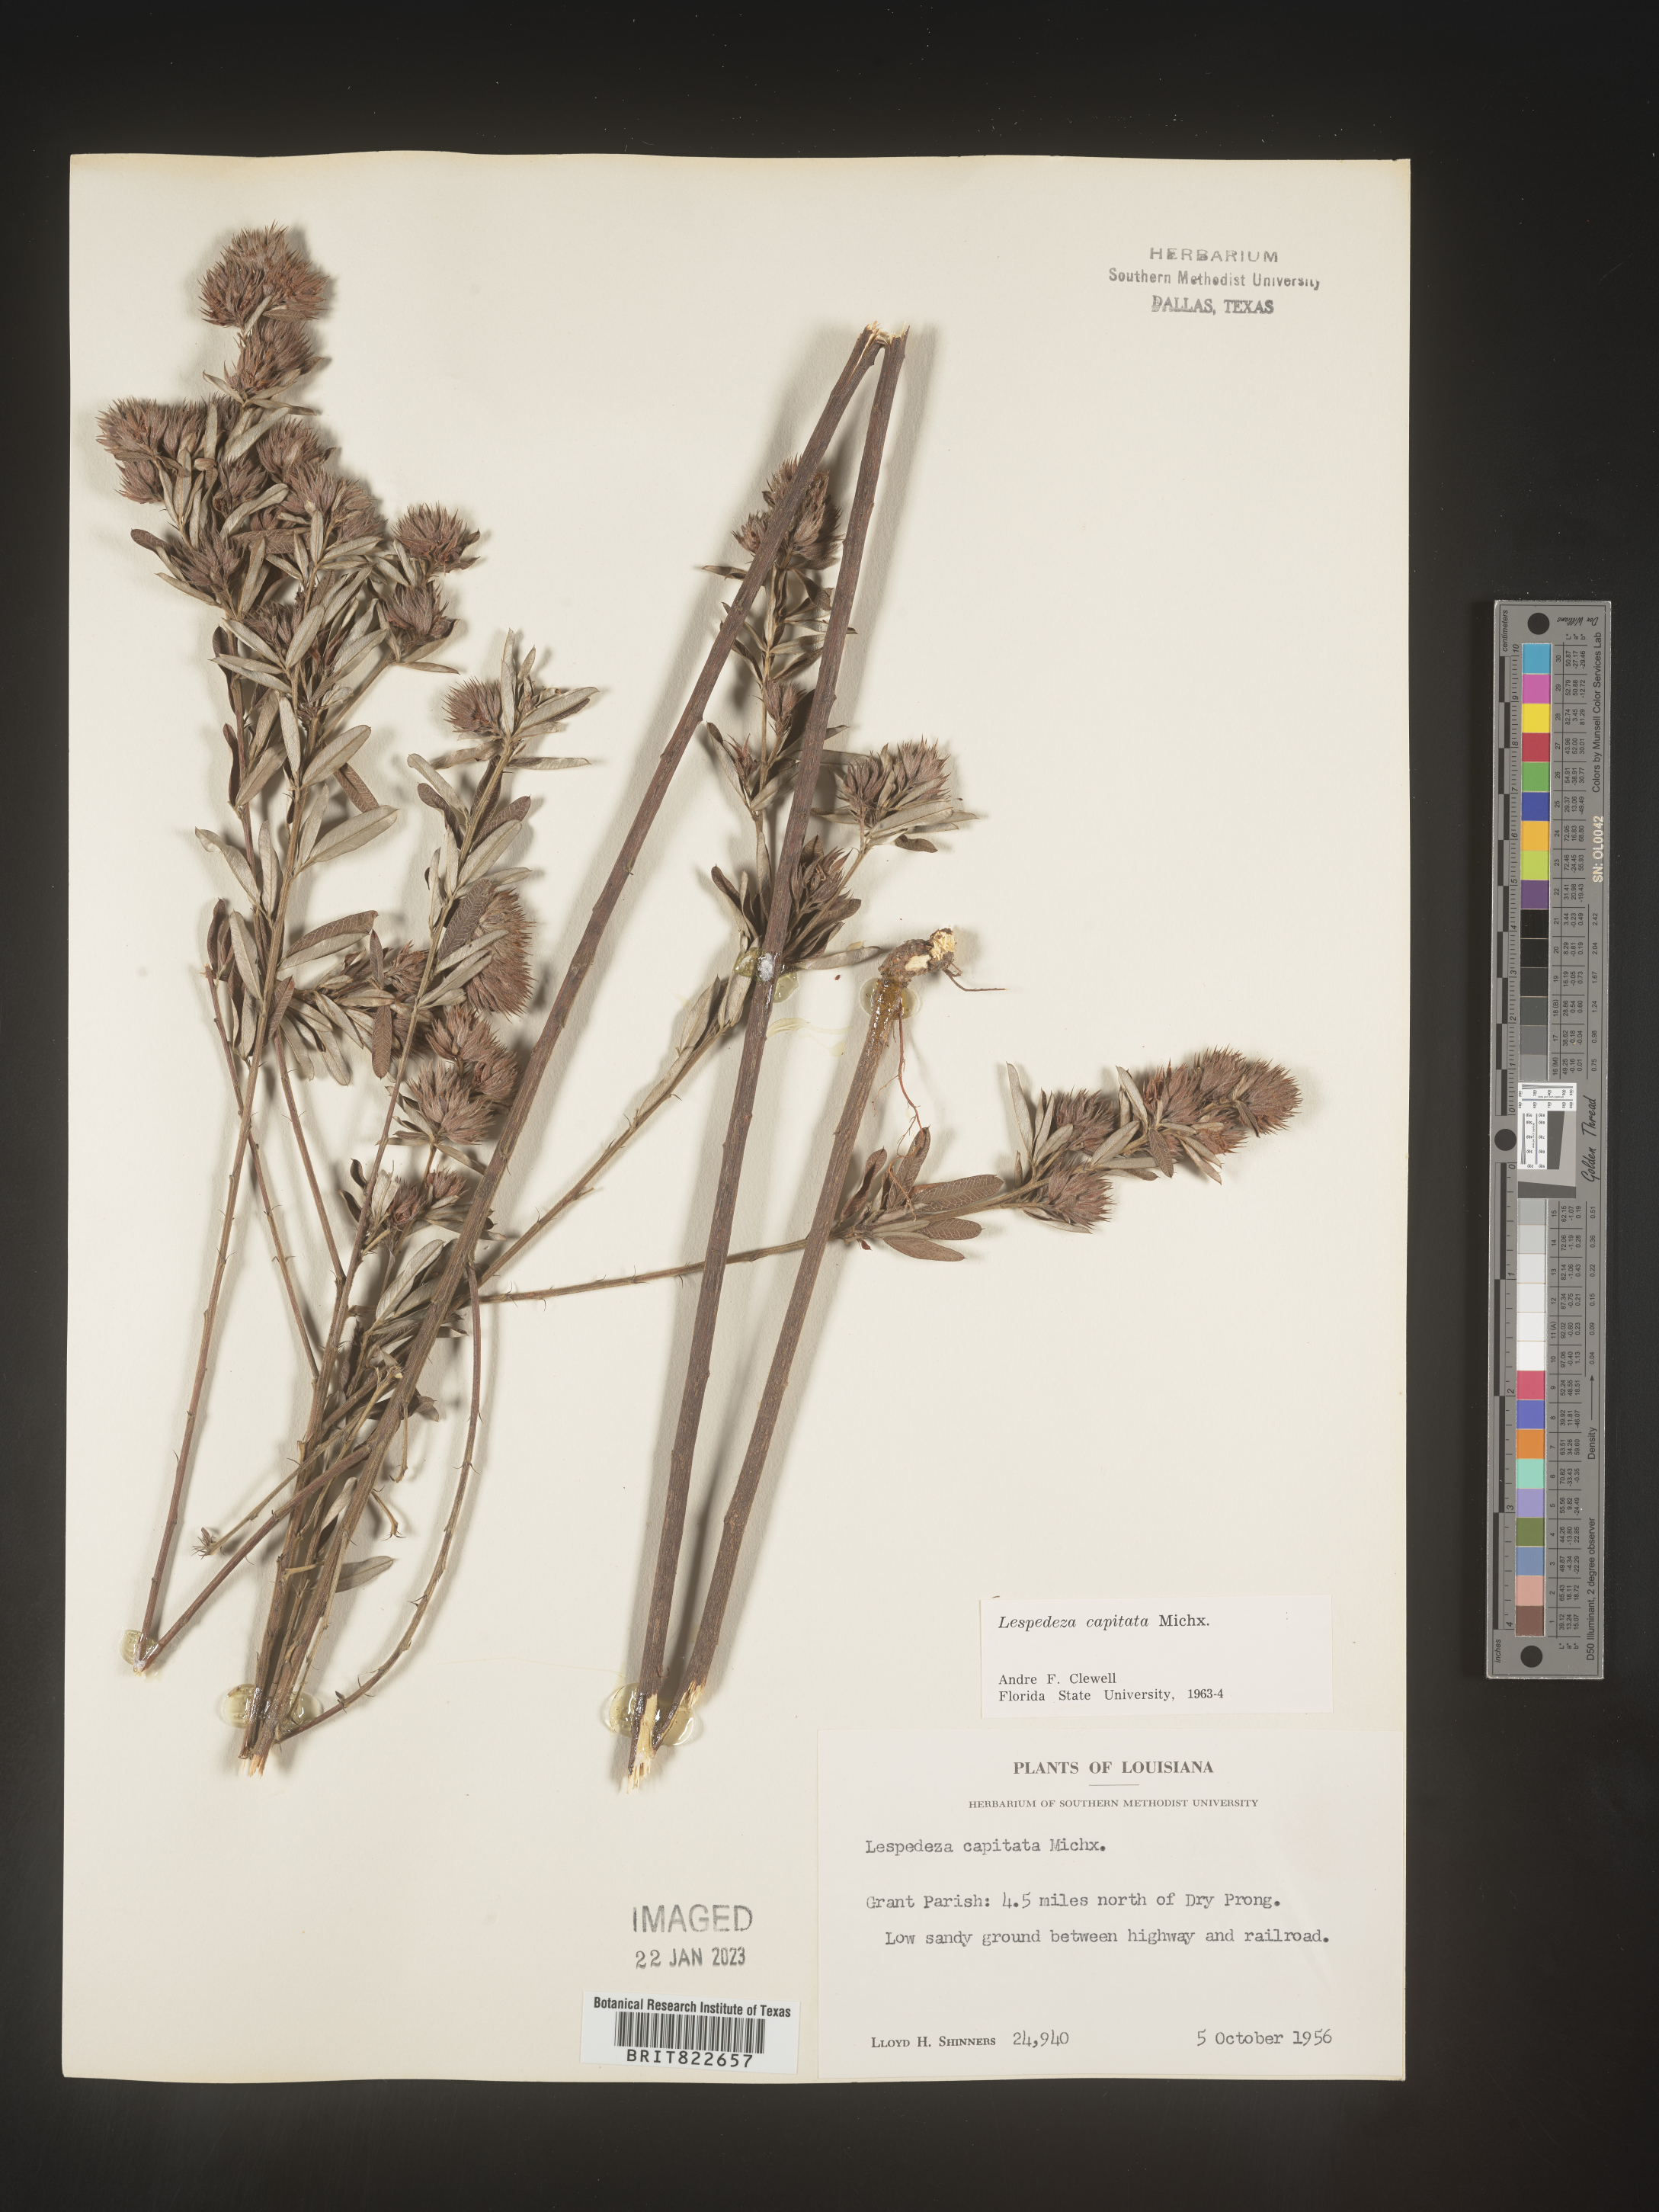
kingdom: Plantae
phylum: Tracheophyta
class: Magnoliopsida
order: Fabales
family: Fabaceae
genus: Lespedeza
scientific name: Lespedeza capitata
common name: Dusty clover
